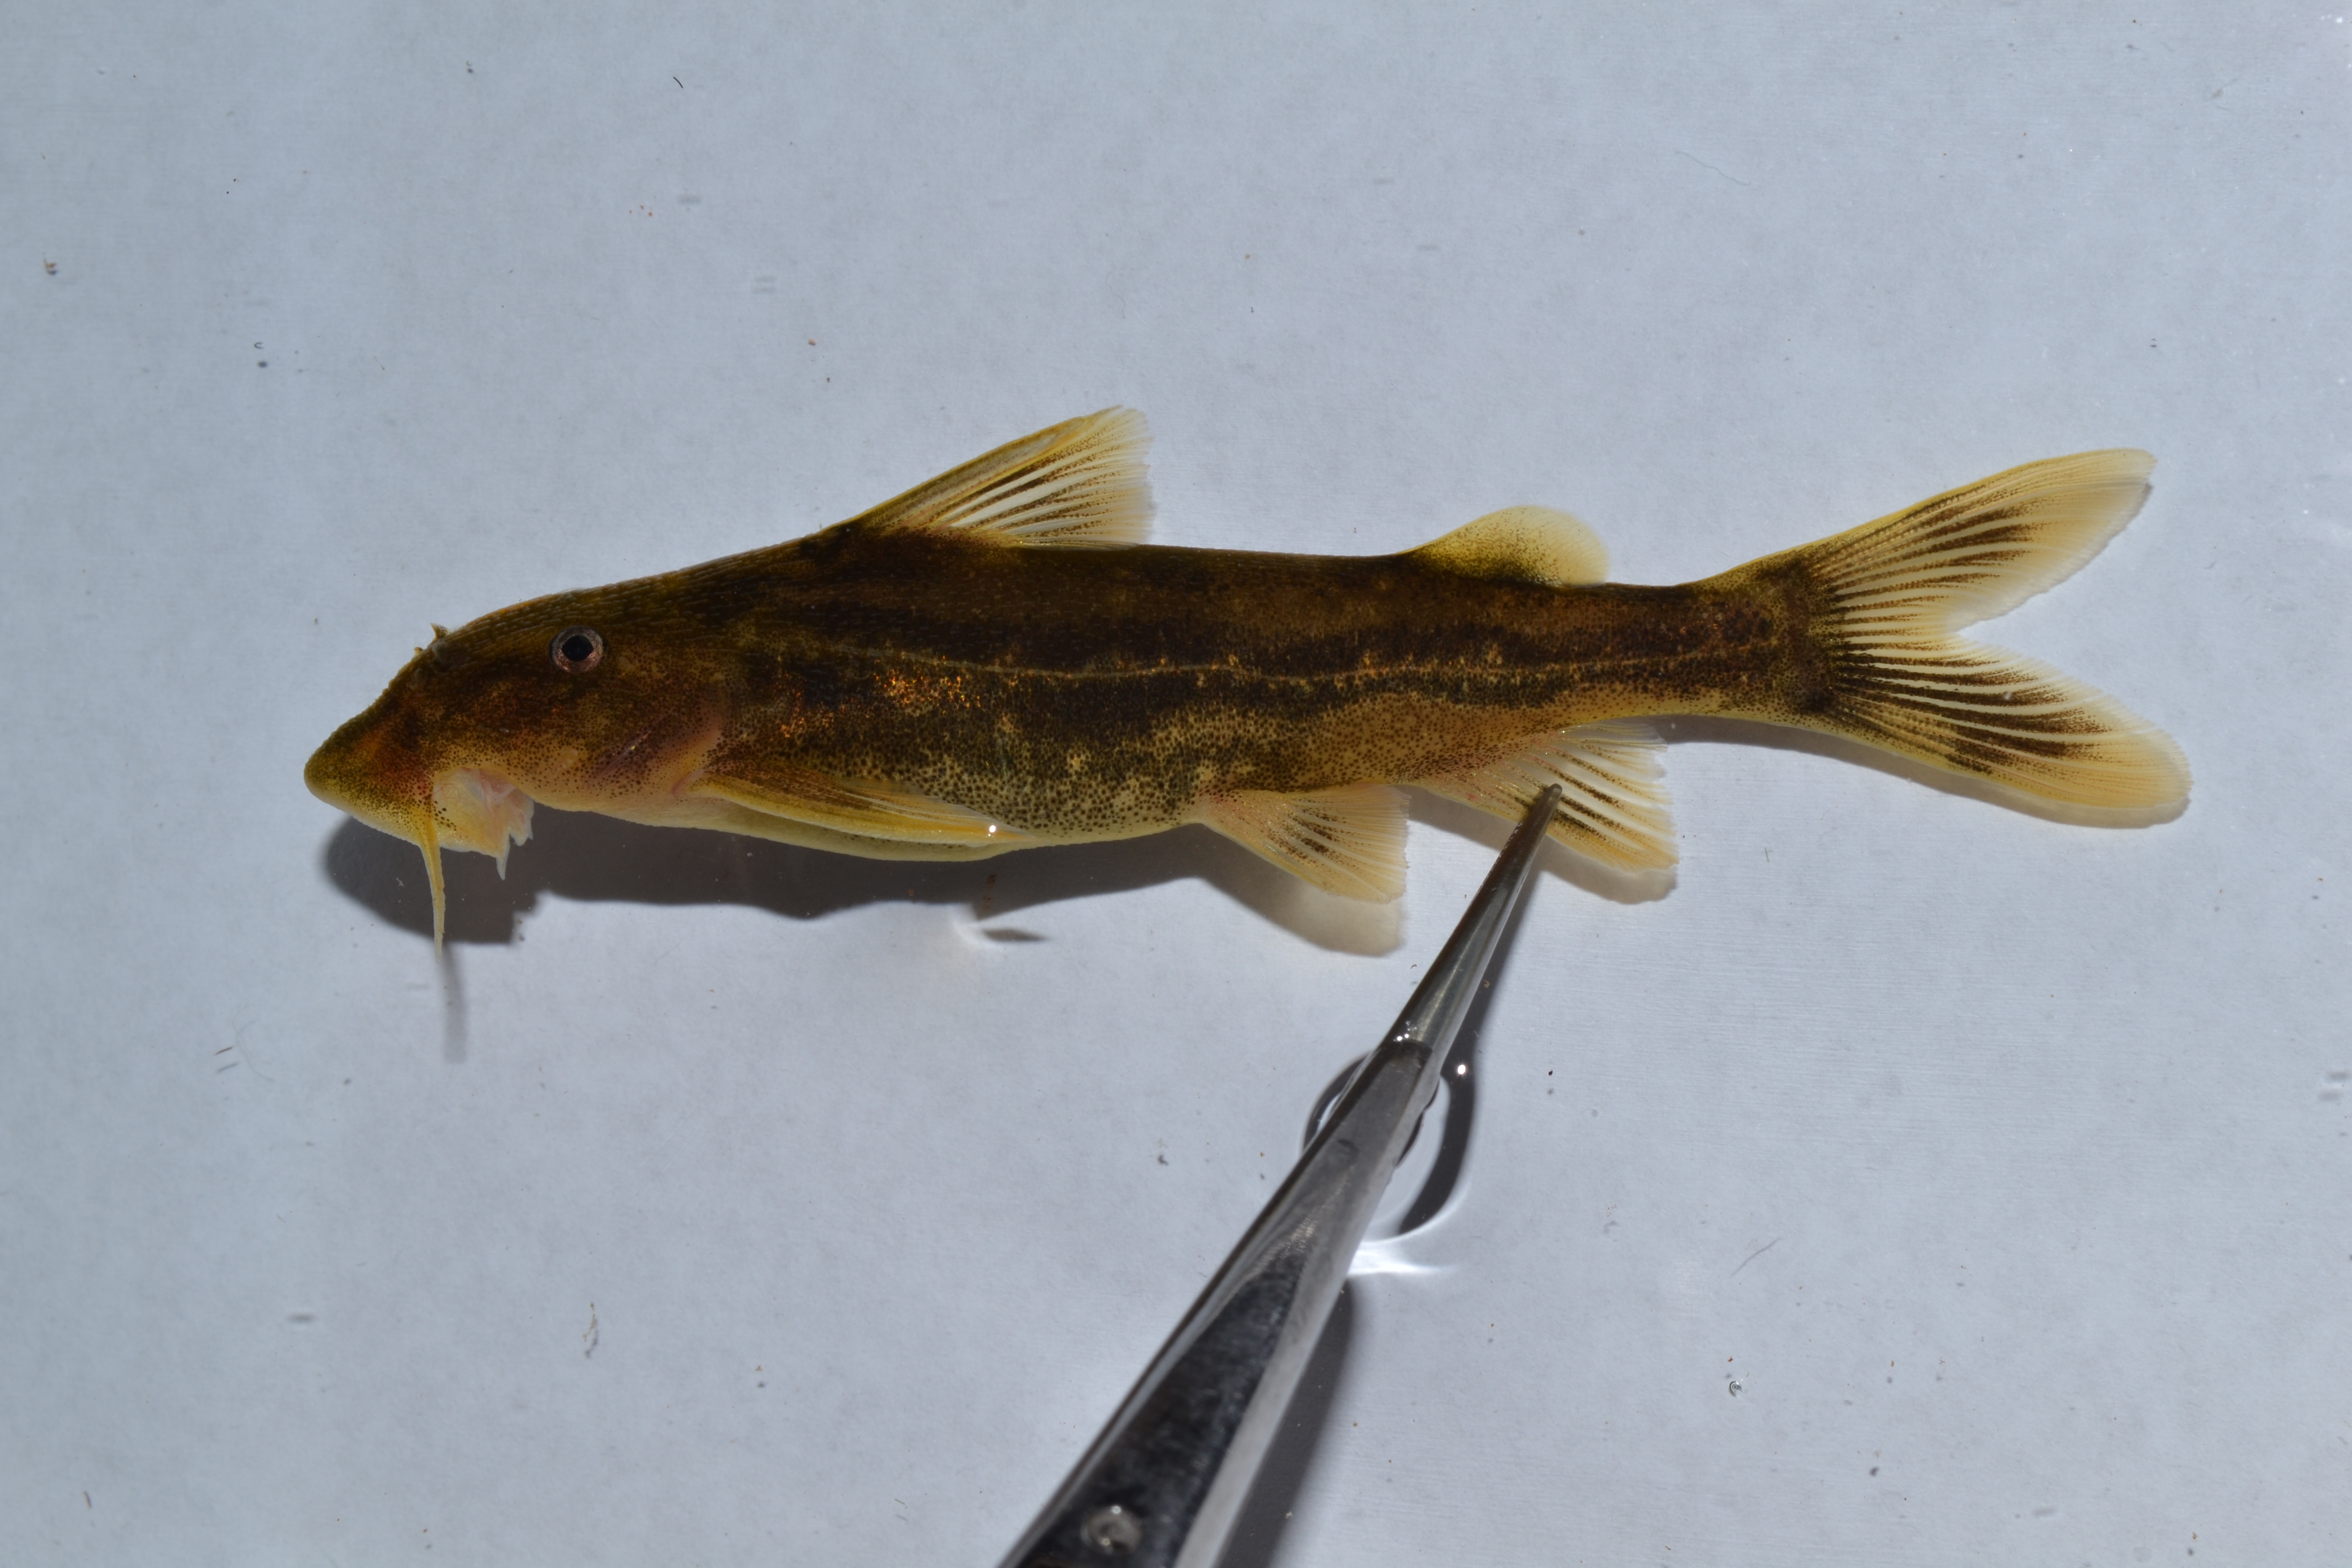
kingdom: Animalia
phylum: Chordata
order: Siluriformes
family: Mochokidae
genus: Chiloglanis
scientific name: Chiloglanis
